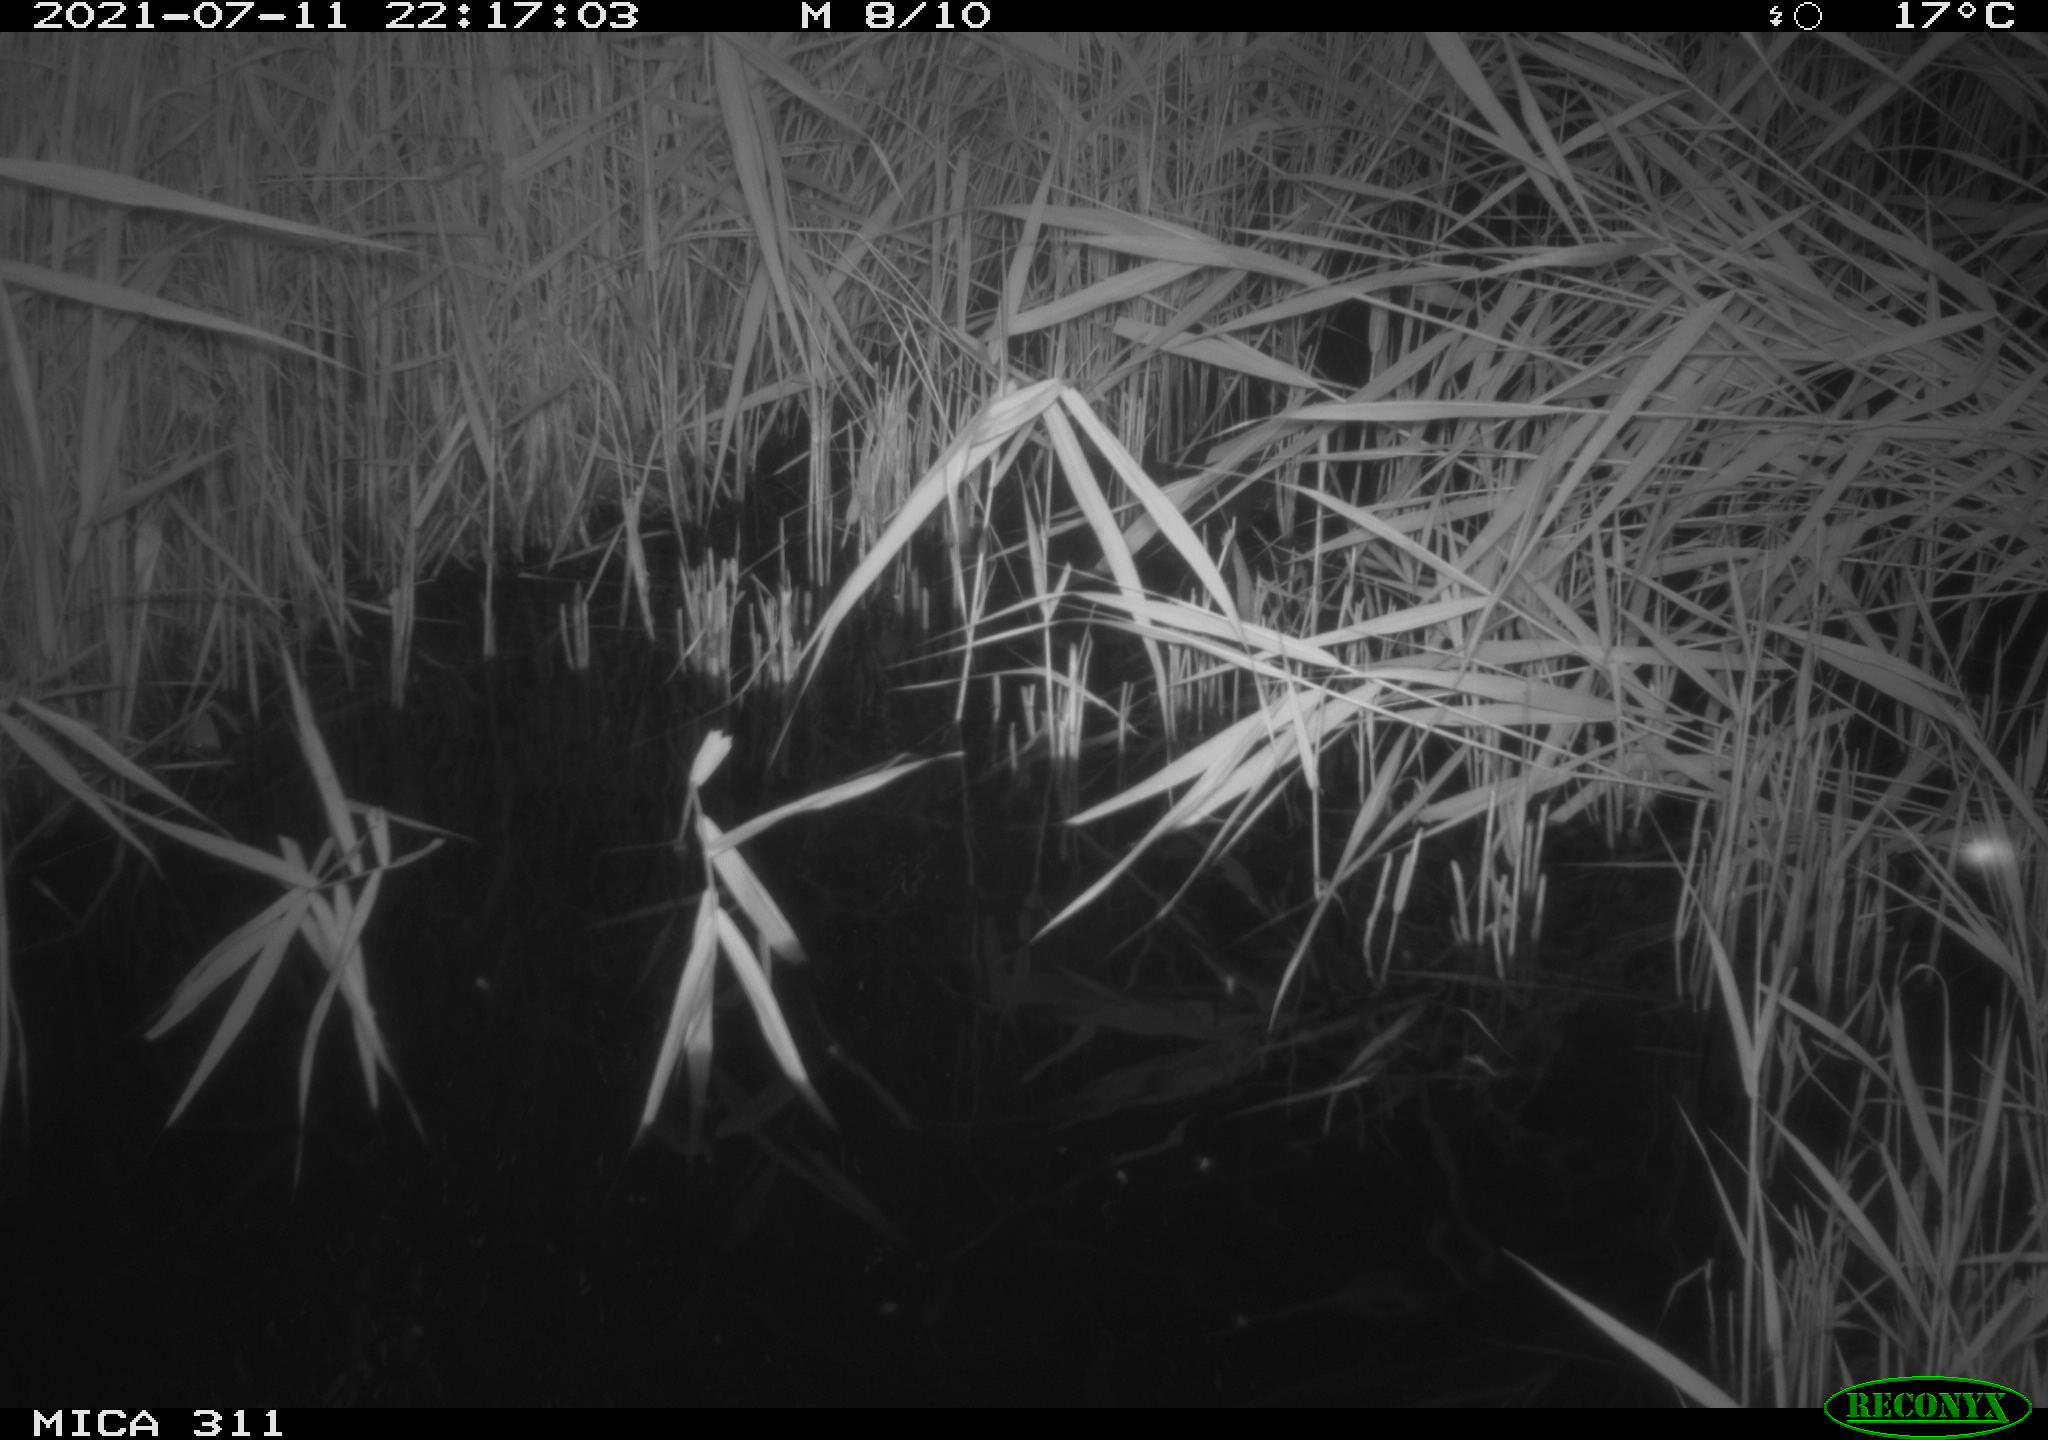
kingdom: Animalia
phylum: Chordata
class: Aves
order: Gruiformes
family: Rallidae
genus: Gallinula
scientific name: Gallinula chloropus
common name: Common moorhen
